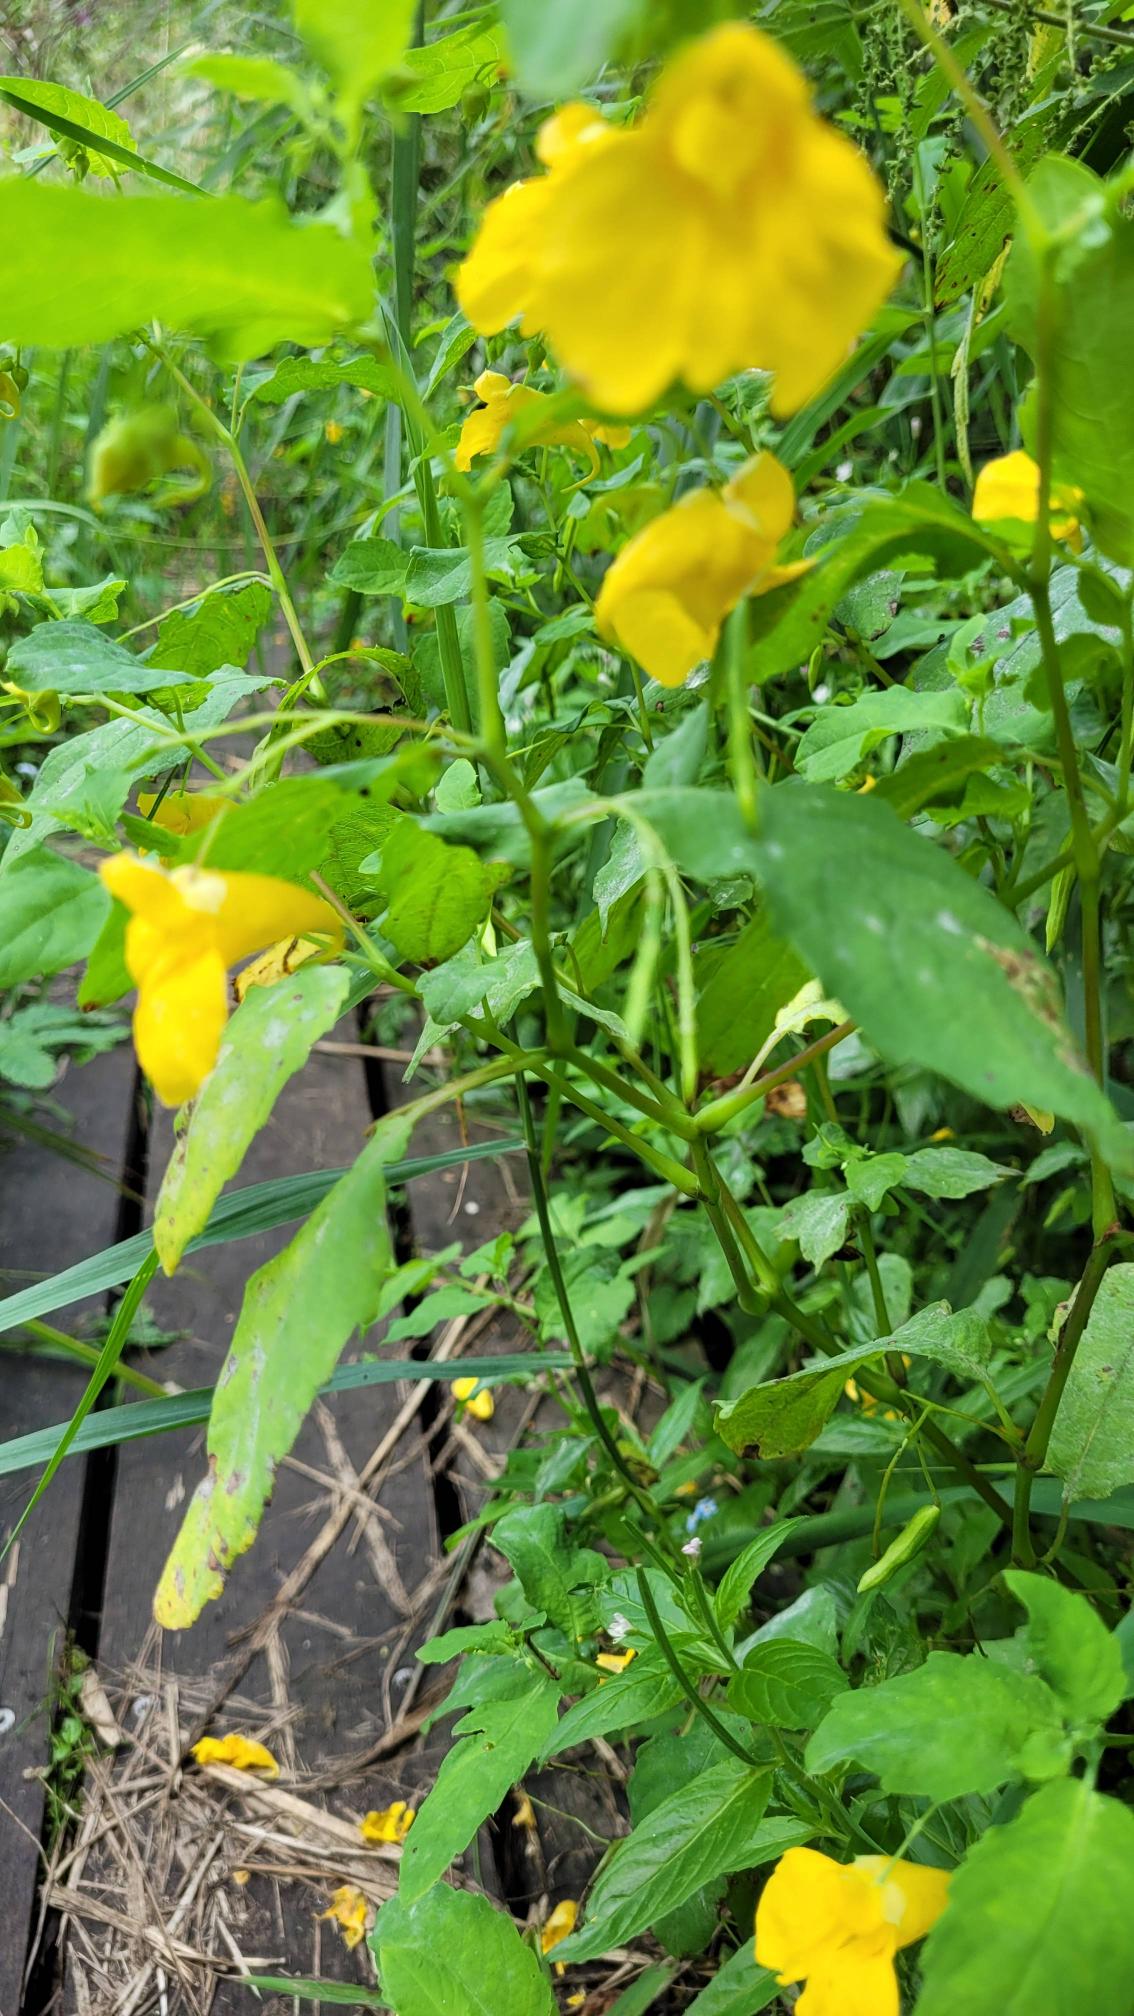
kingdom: Plantae
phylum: Tracheophyta
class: Magnoliopsida
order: Ericales
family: Balsaminaceae
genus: Impatiens
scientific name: Impatiens noli-tangere
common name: Spring-balsamin
